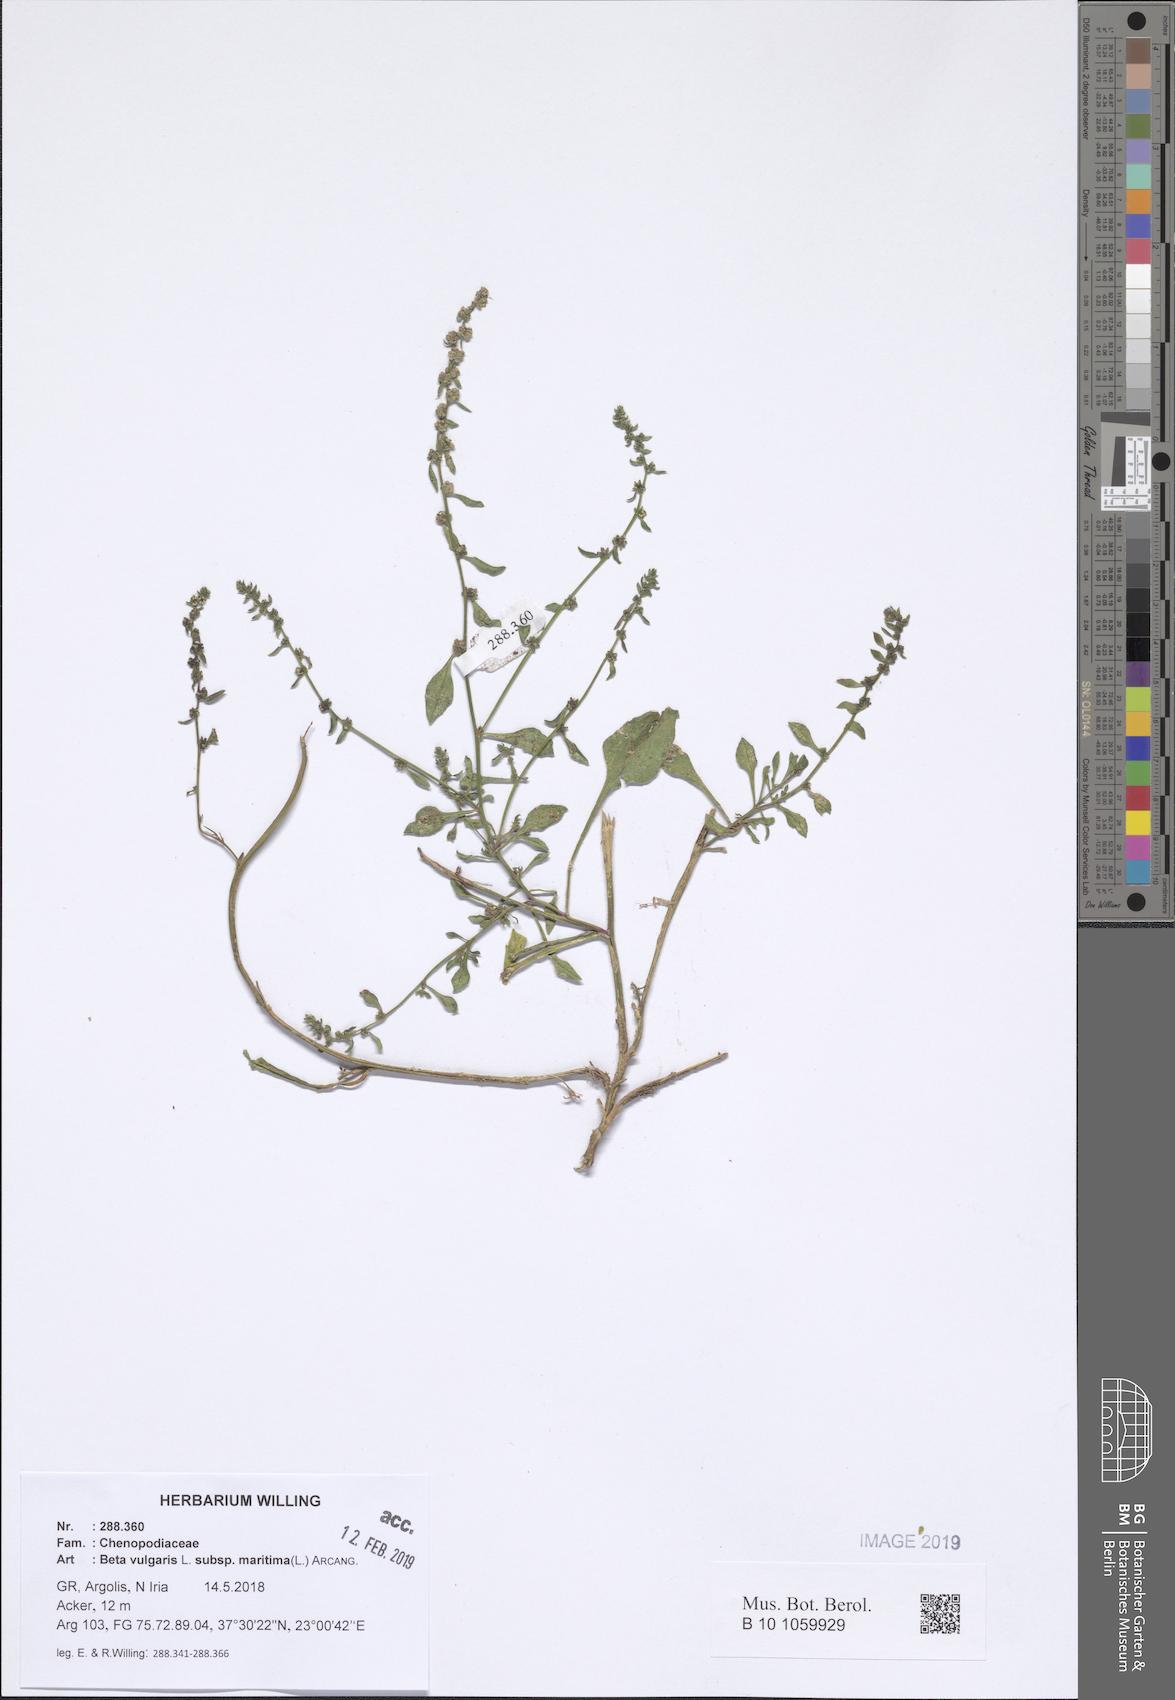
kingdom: Plantae
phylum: Tracheophyta
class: Magnoliopsida
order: Caryophyllales
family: Amaranthaceae
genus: Beta
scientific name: Beta maritima
